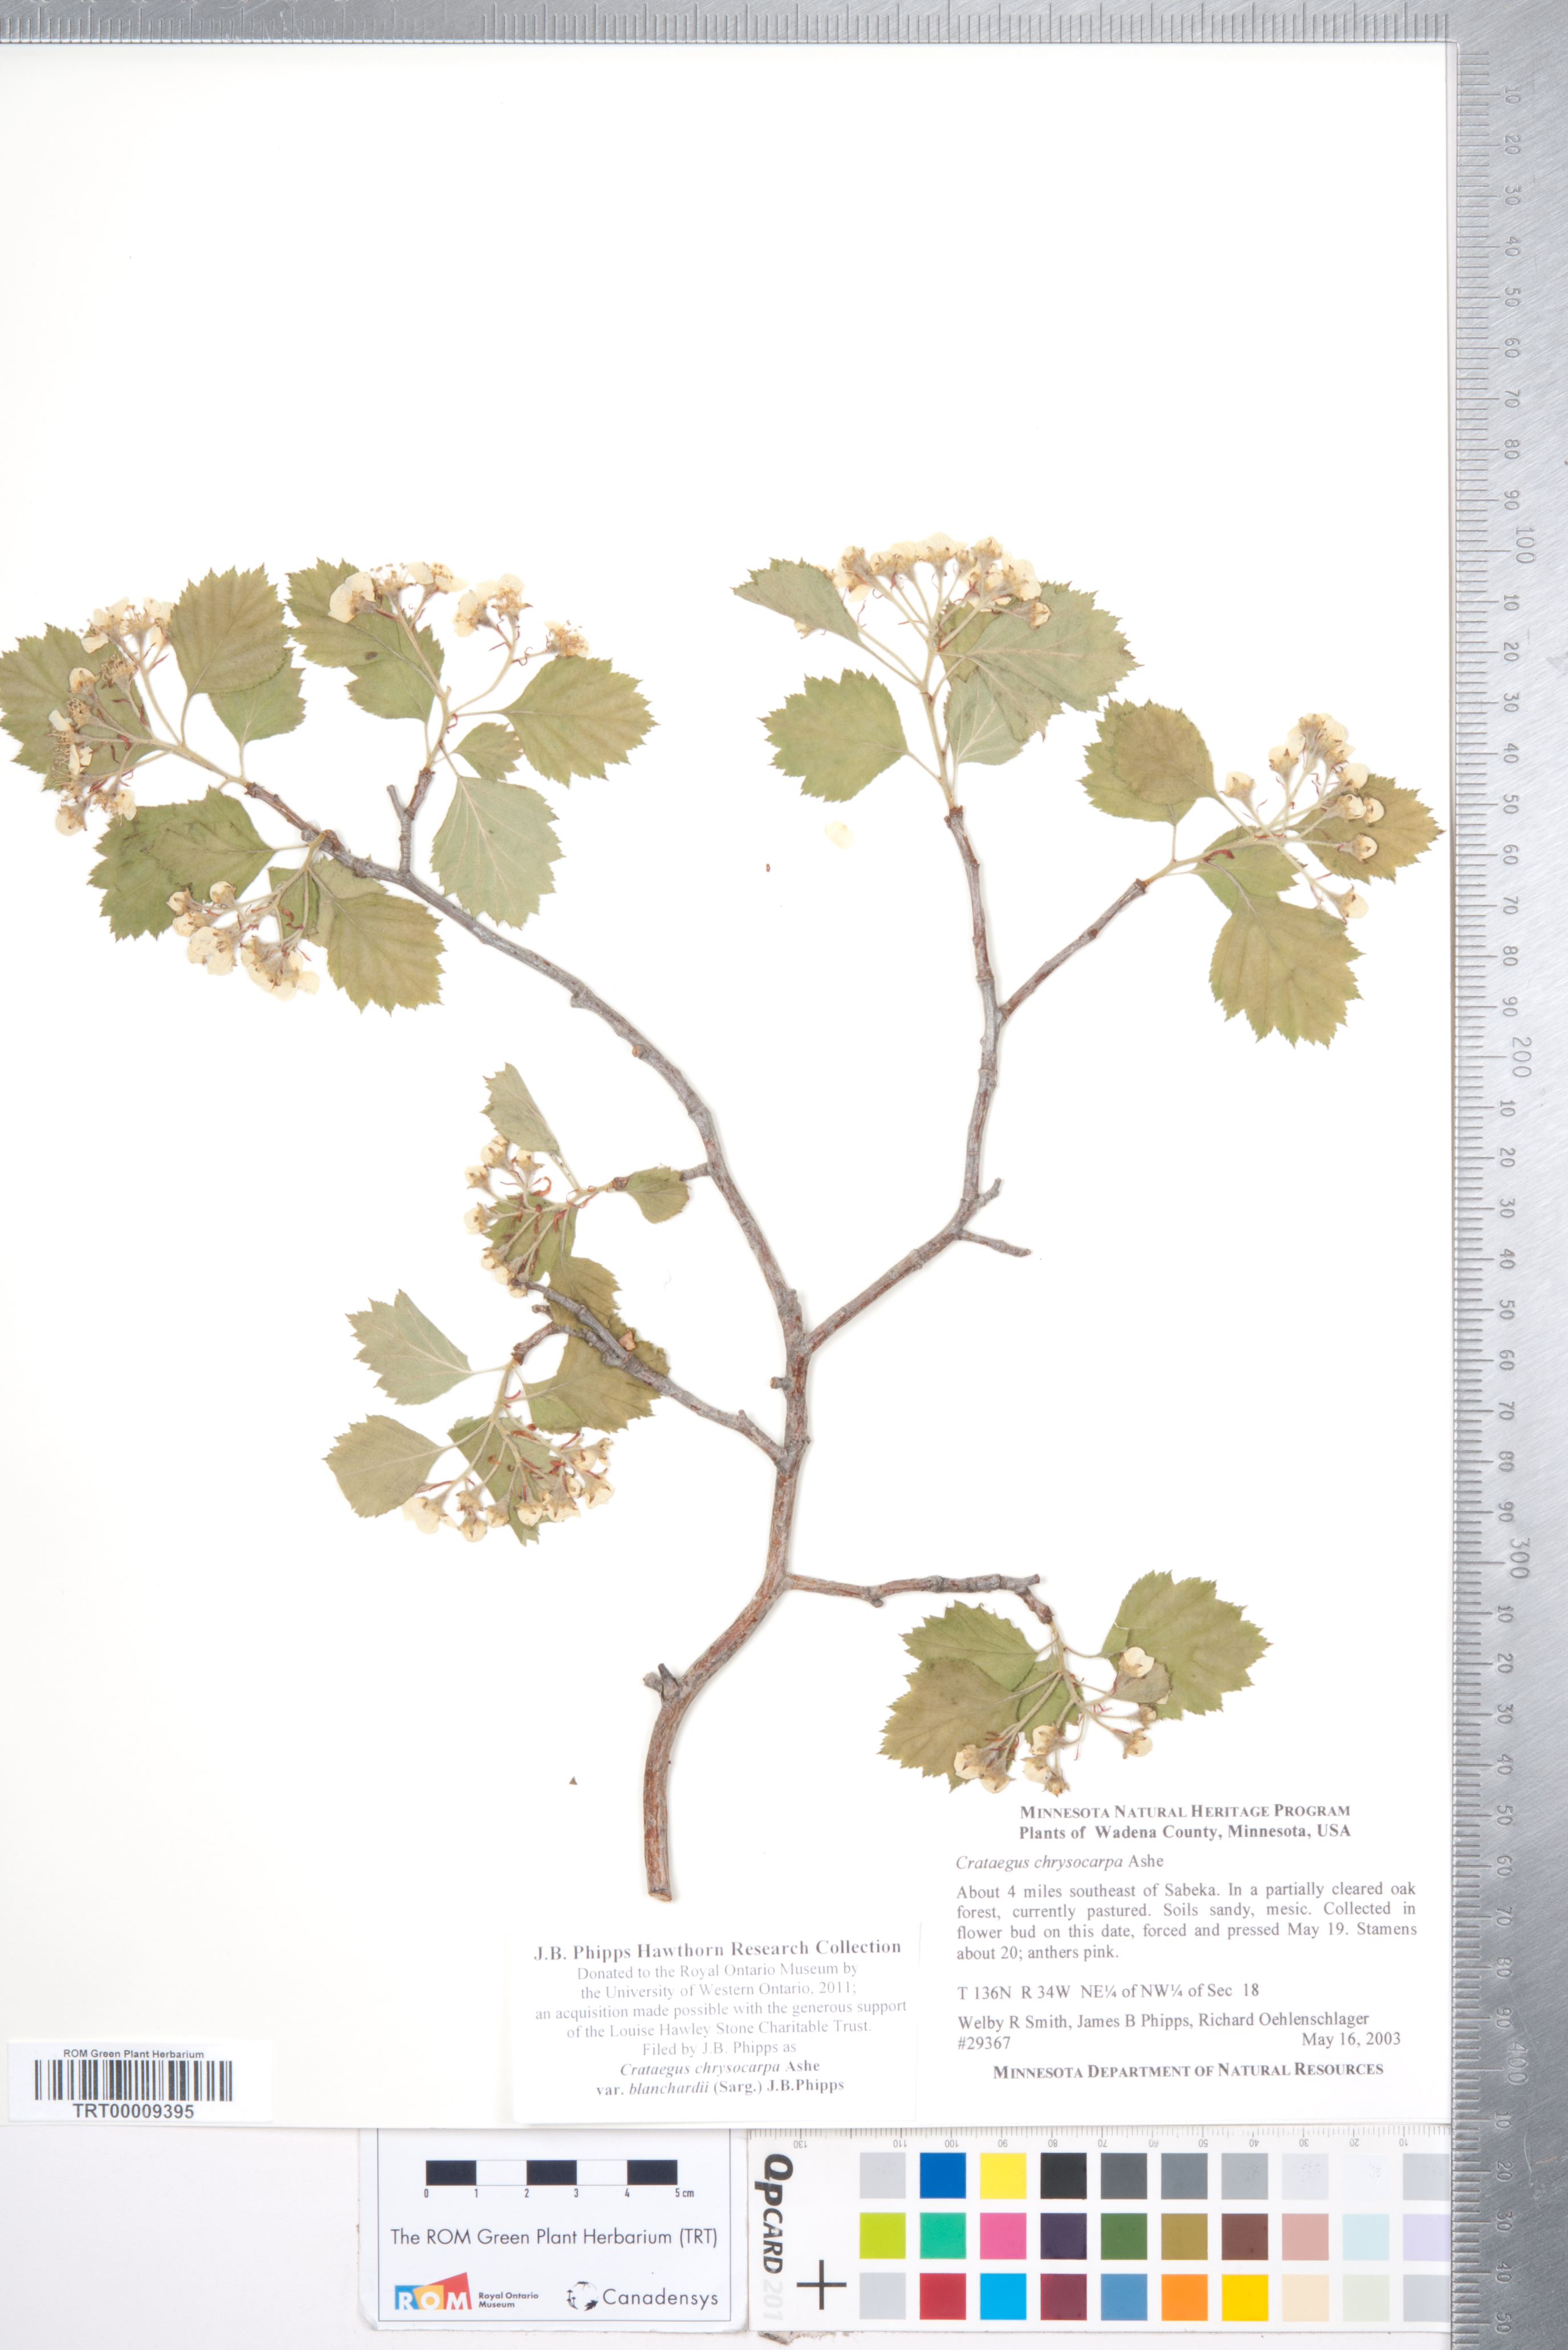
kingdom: Plantae
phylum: Tracheophyta
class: Magnoliopsida
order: Rosales
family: Rosaceae
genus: Crataegus
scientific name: Crataegus chrysocarpa
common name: Fire-berry hawthorn
